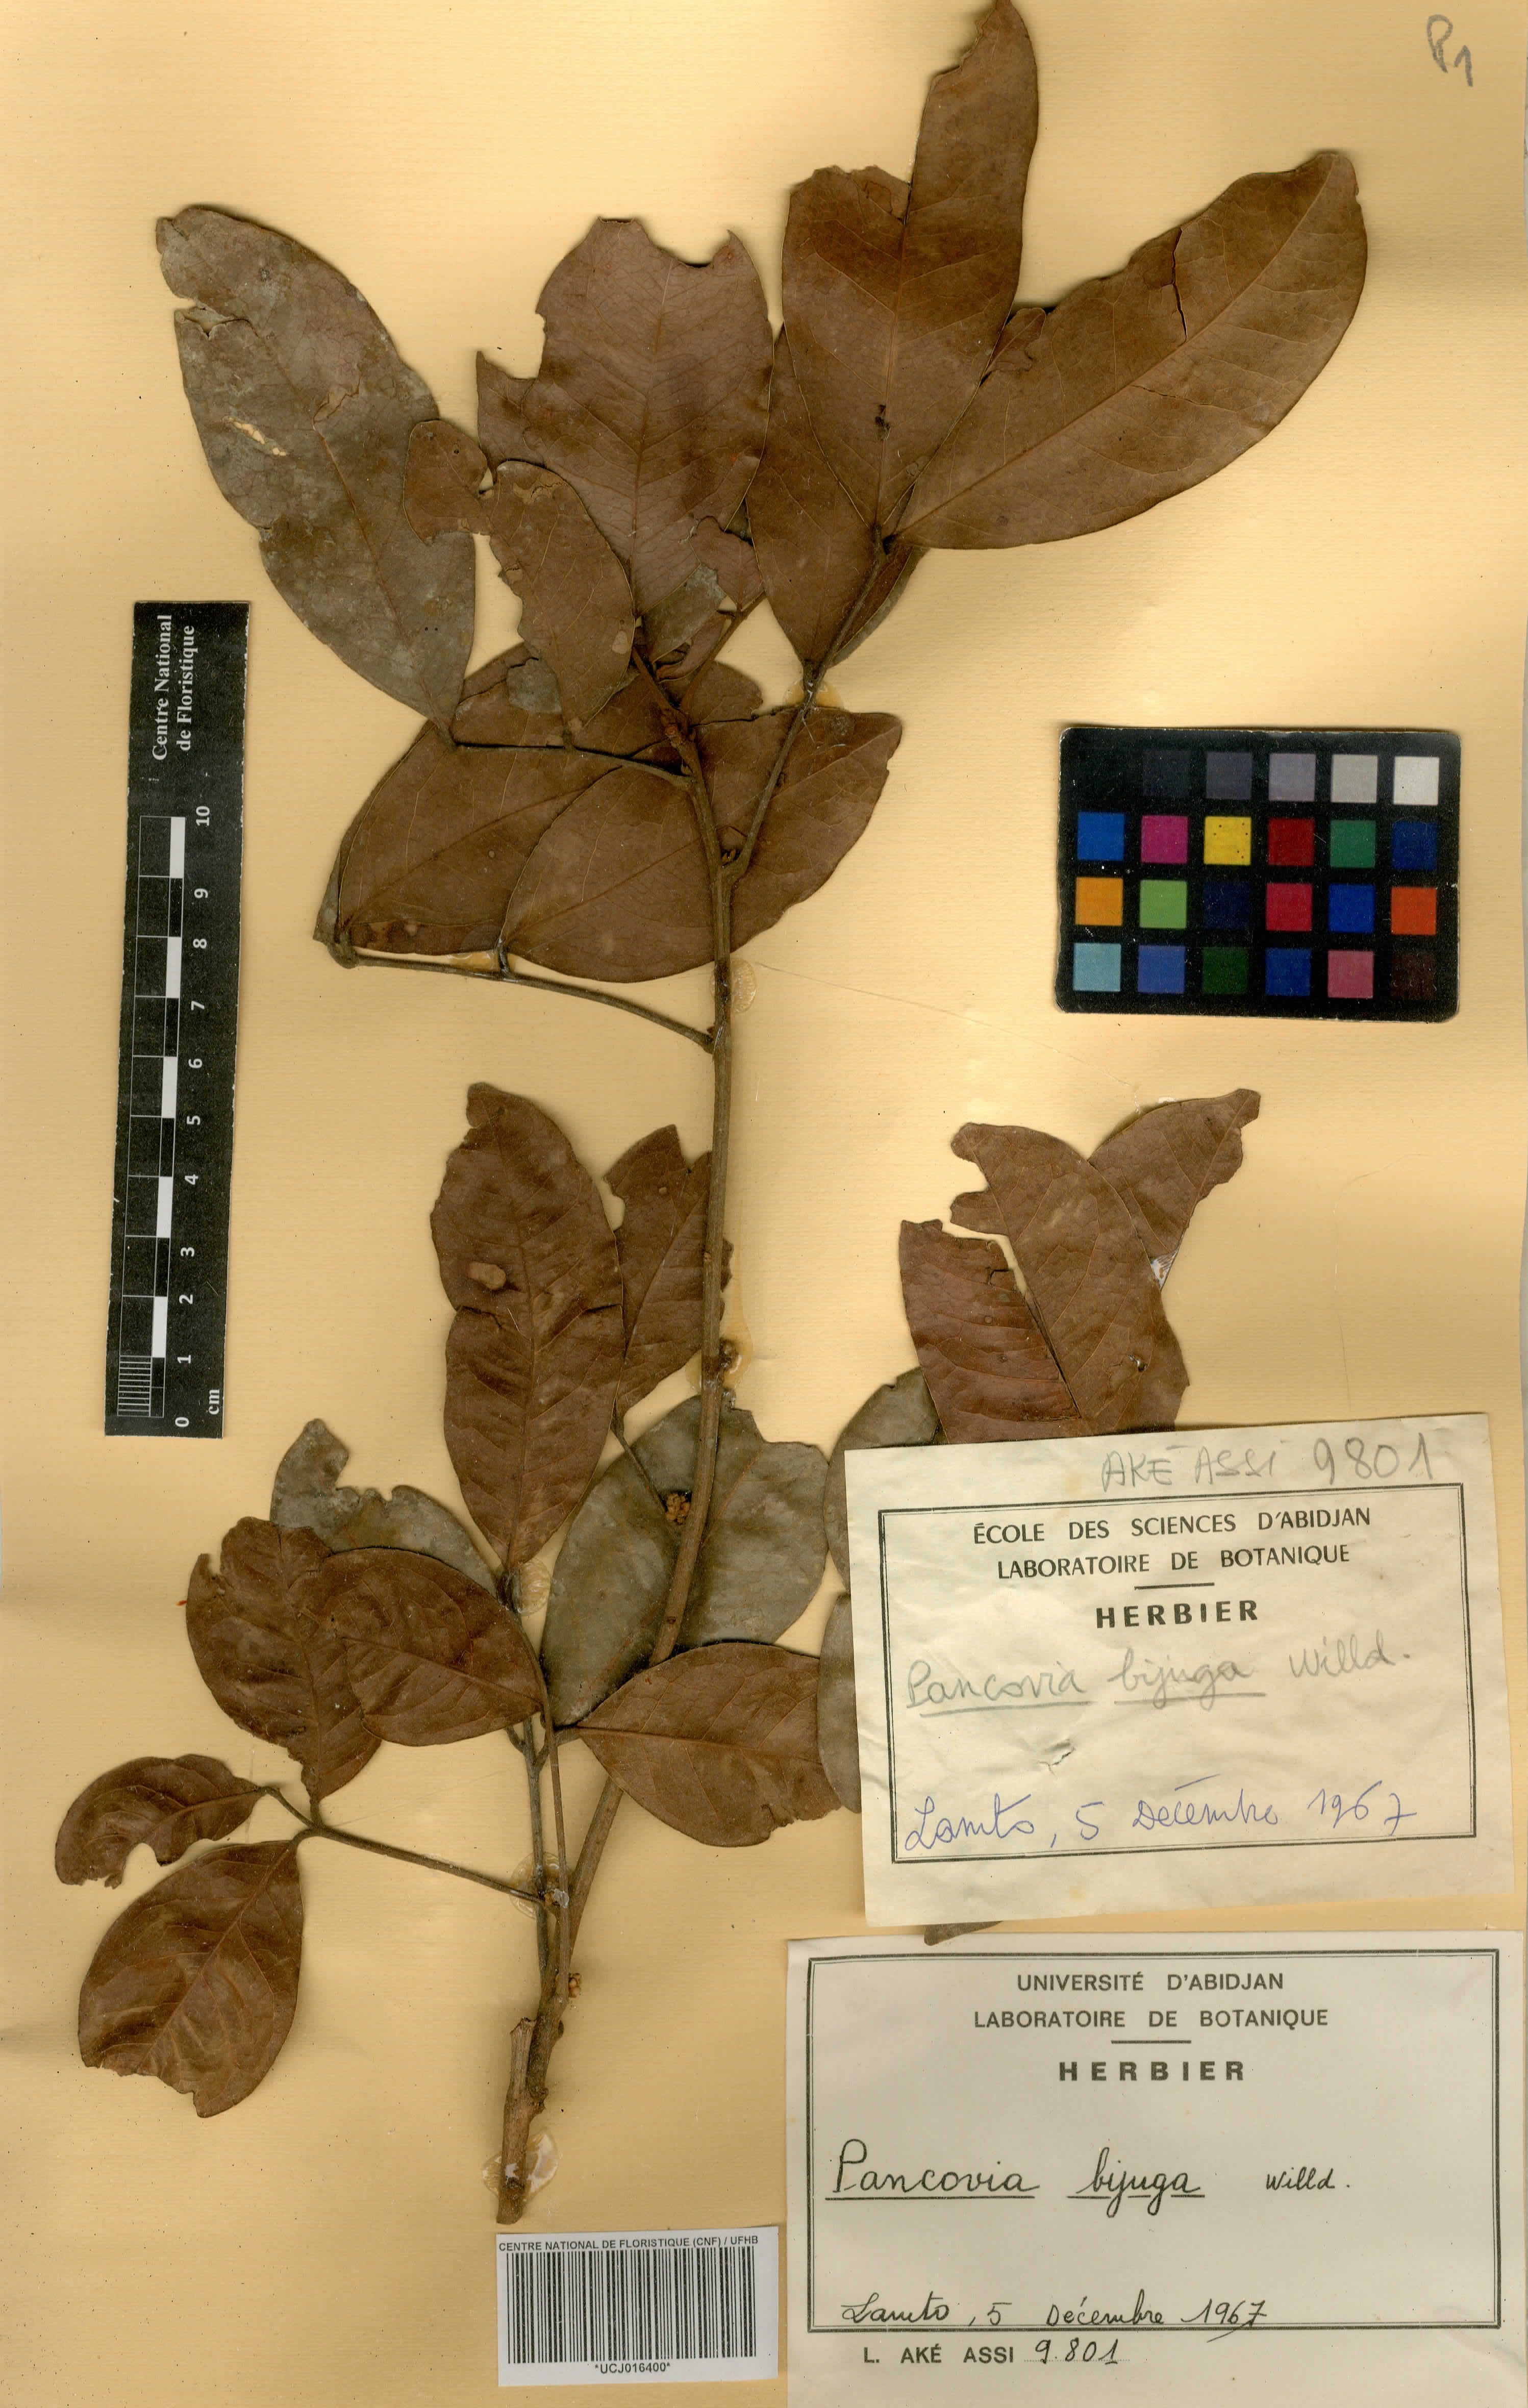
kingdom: Plantae
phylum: Tracheophyta
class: Magnoliopsida
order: Sapindales
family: Sapindaceae
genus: Pancovia
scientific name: Pancovia bijuga
